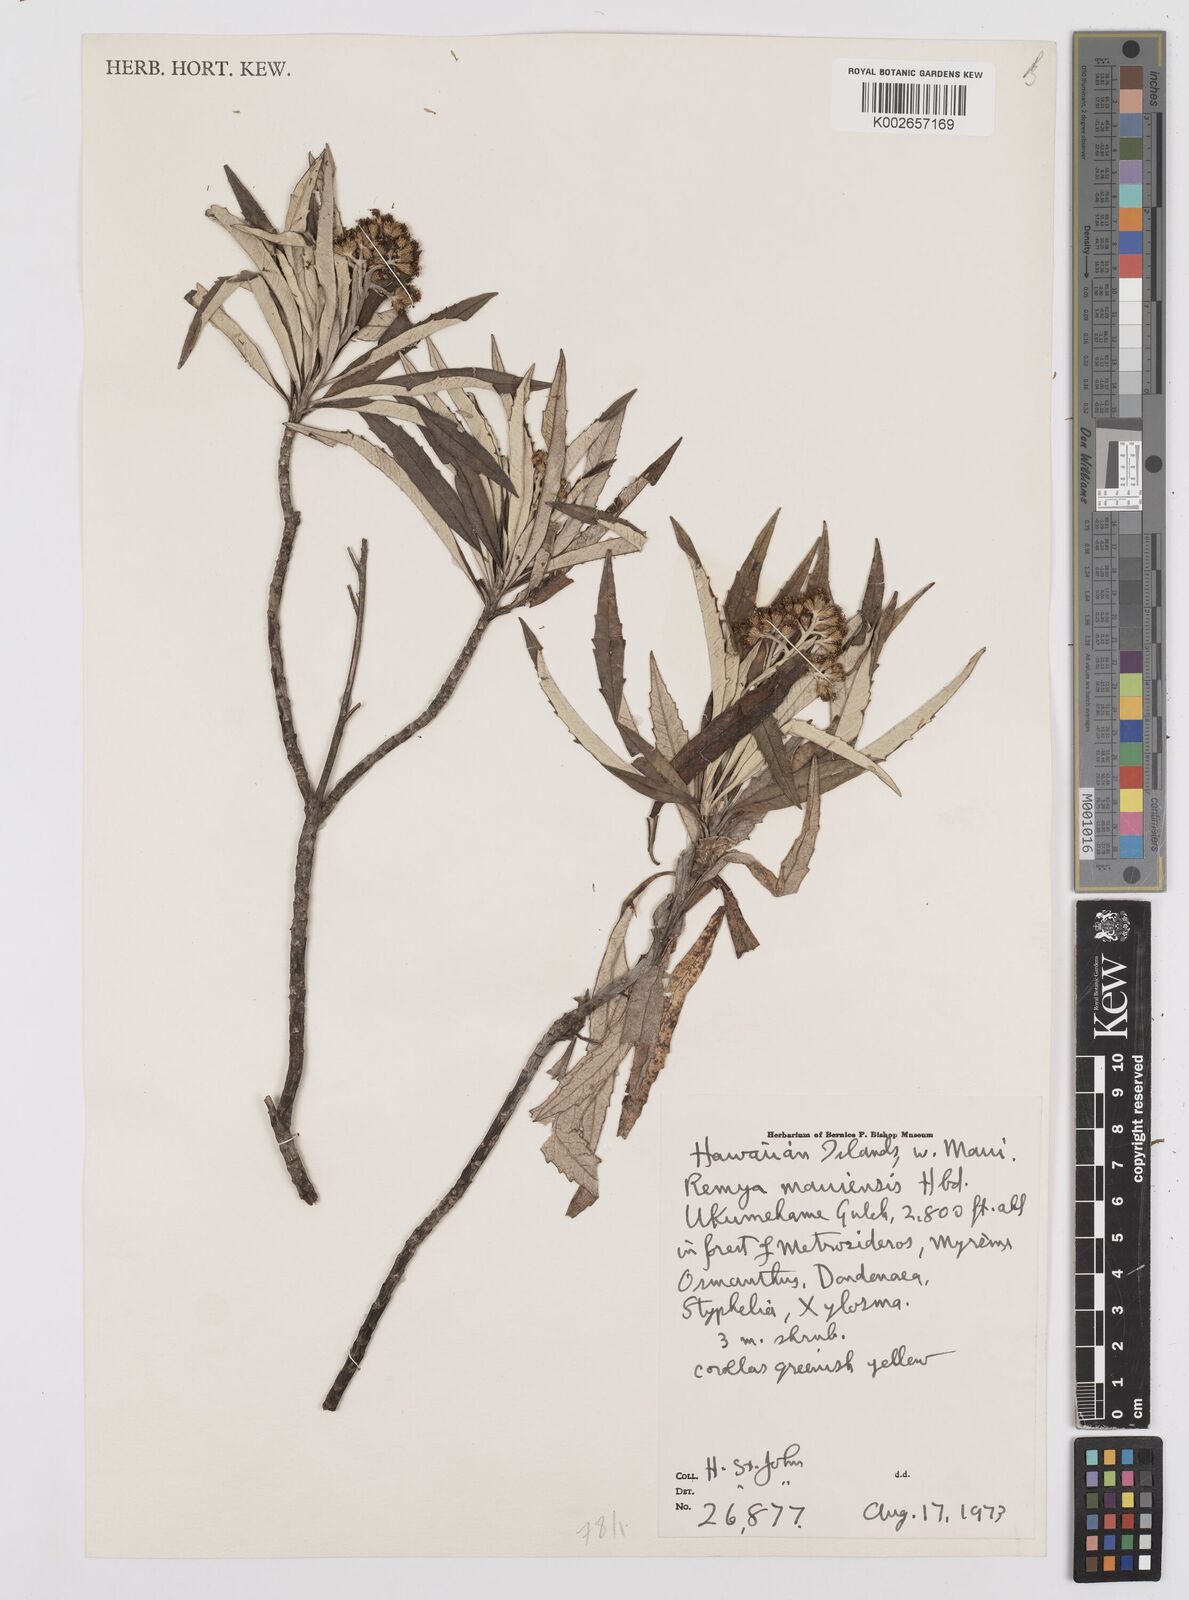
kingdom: Plantae
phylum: Tracheophyta
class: Magnoliopsida
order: Asterales
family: Asteraceae
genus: Remya
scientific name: Remya mauiensis
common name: Maui remya
